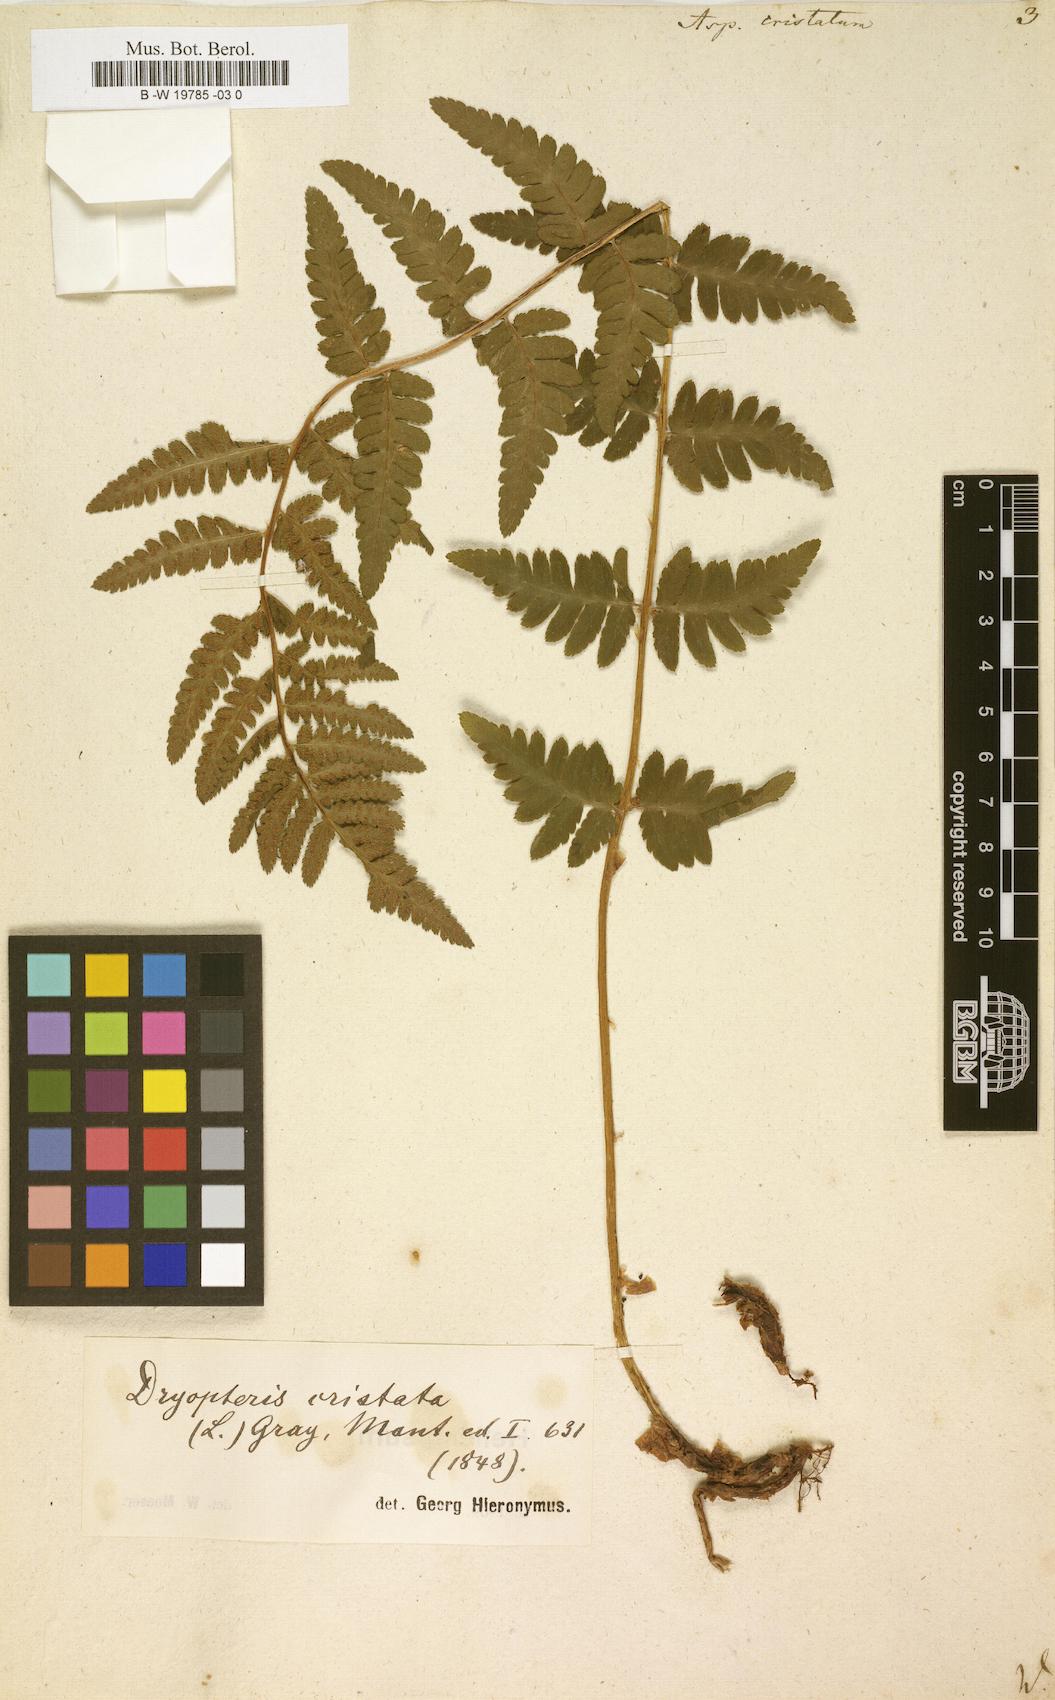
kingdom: Plantae
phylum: Tracheophyta
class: Polypodiopsida
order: Polypodiales
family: Dryopteridaceae
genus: Dryopteris
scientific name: Dryopteris cristata
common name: Crested wood fern
